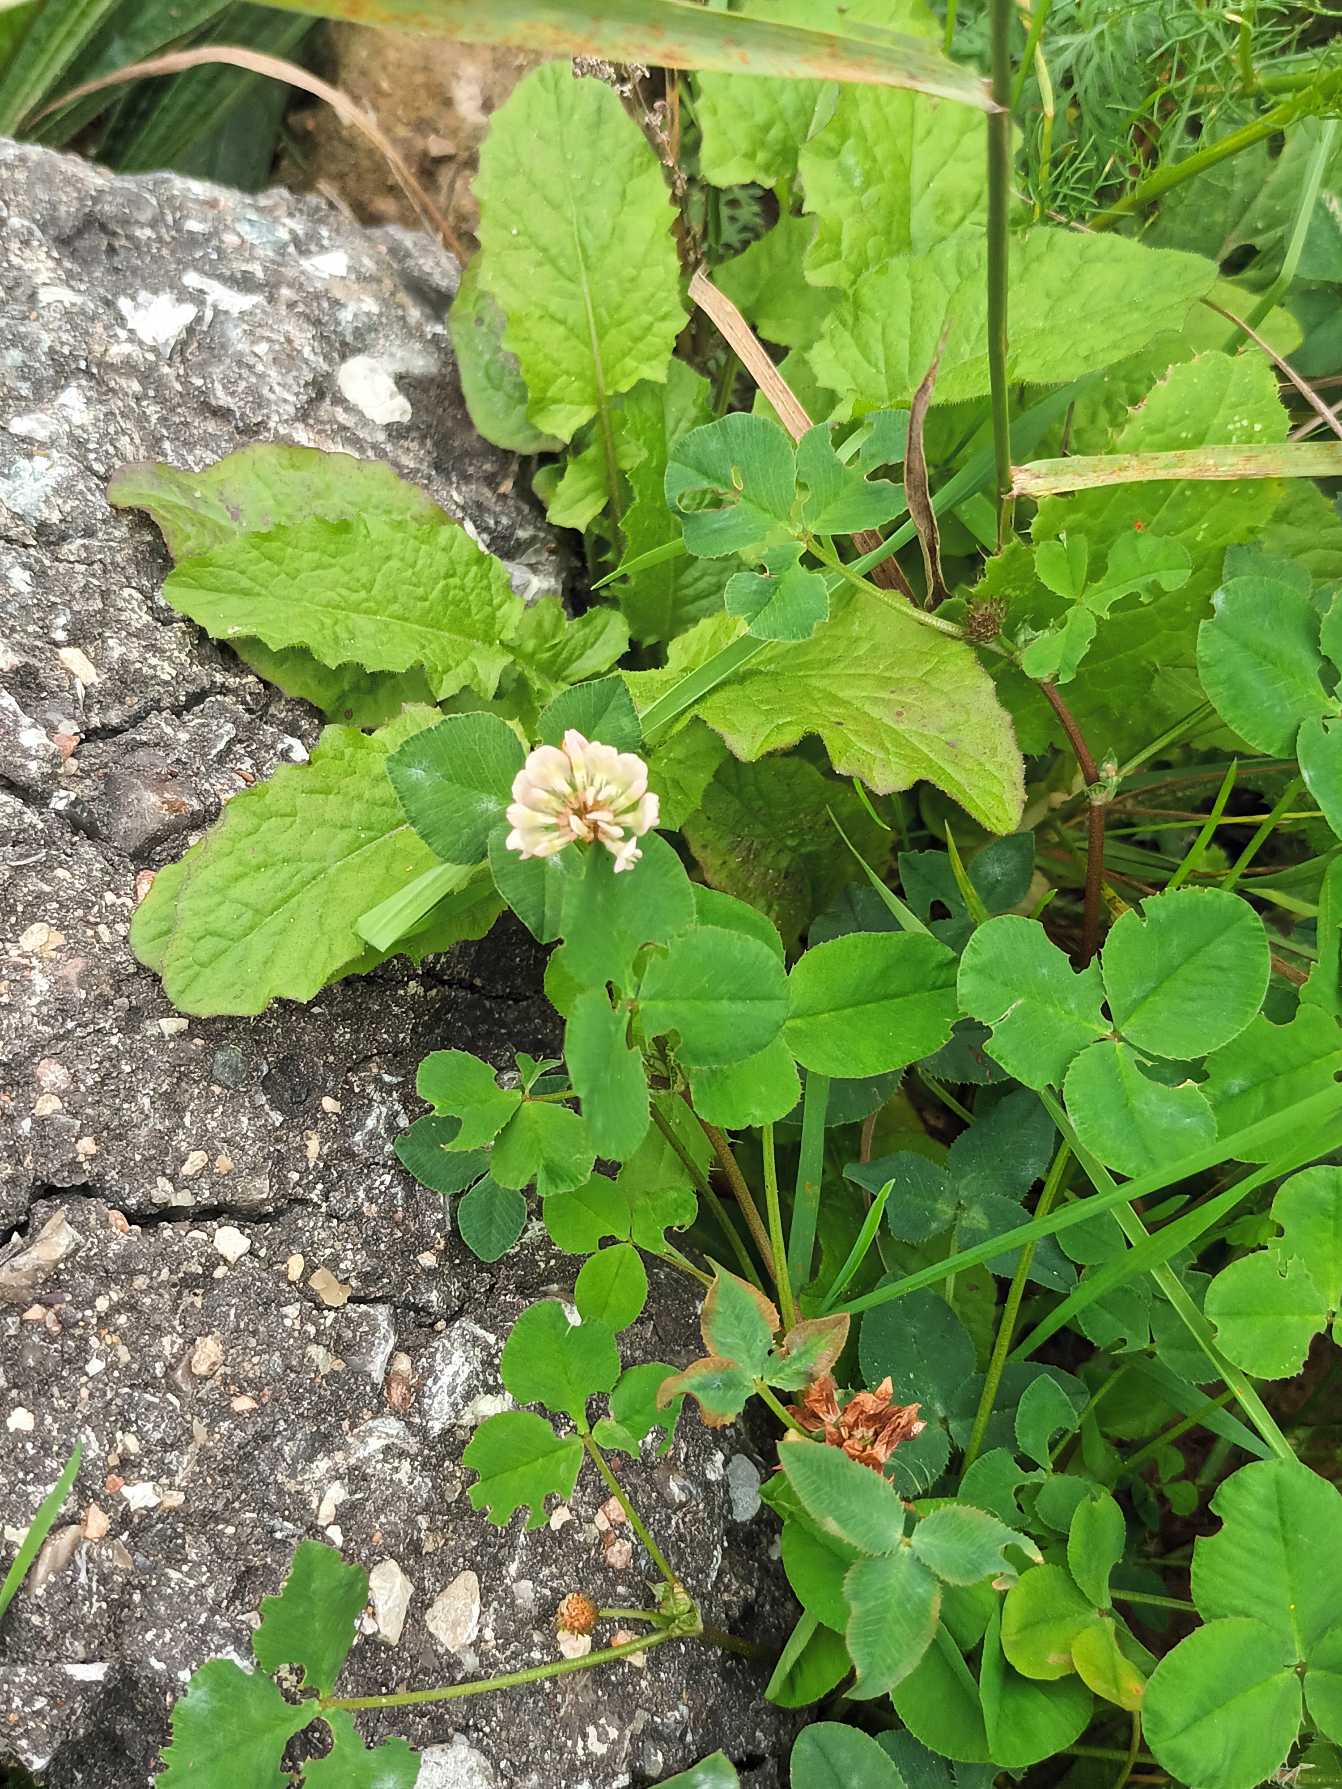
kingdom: Plantae
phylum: Tracheophyta
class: Magnoliopsida
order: Fabales
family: Fabaceae
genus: Trifolium
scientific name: Trifolium repens
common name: Hvid-kløver
